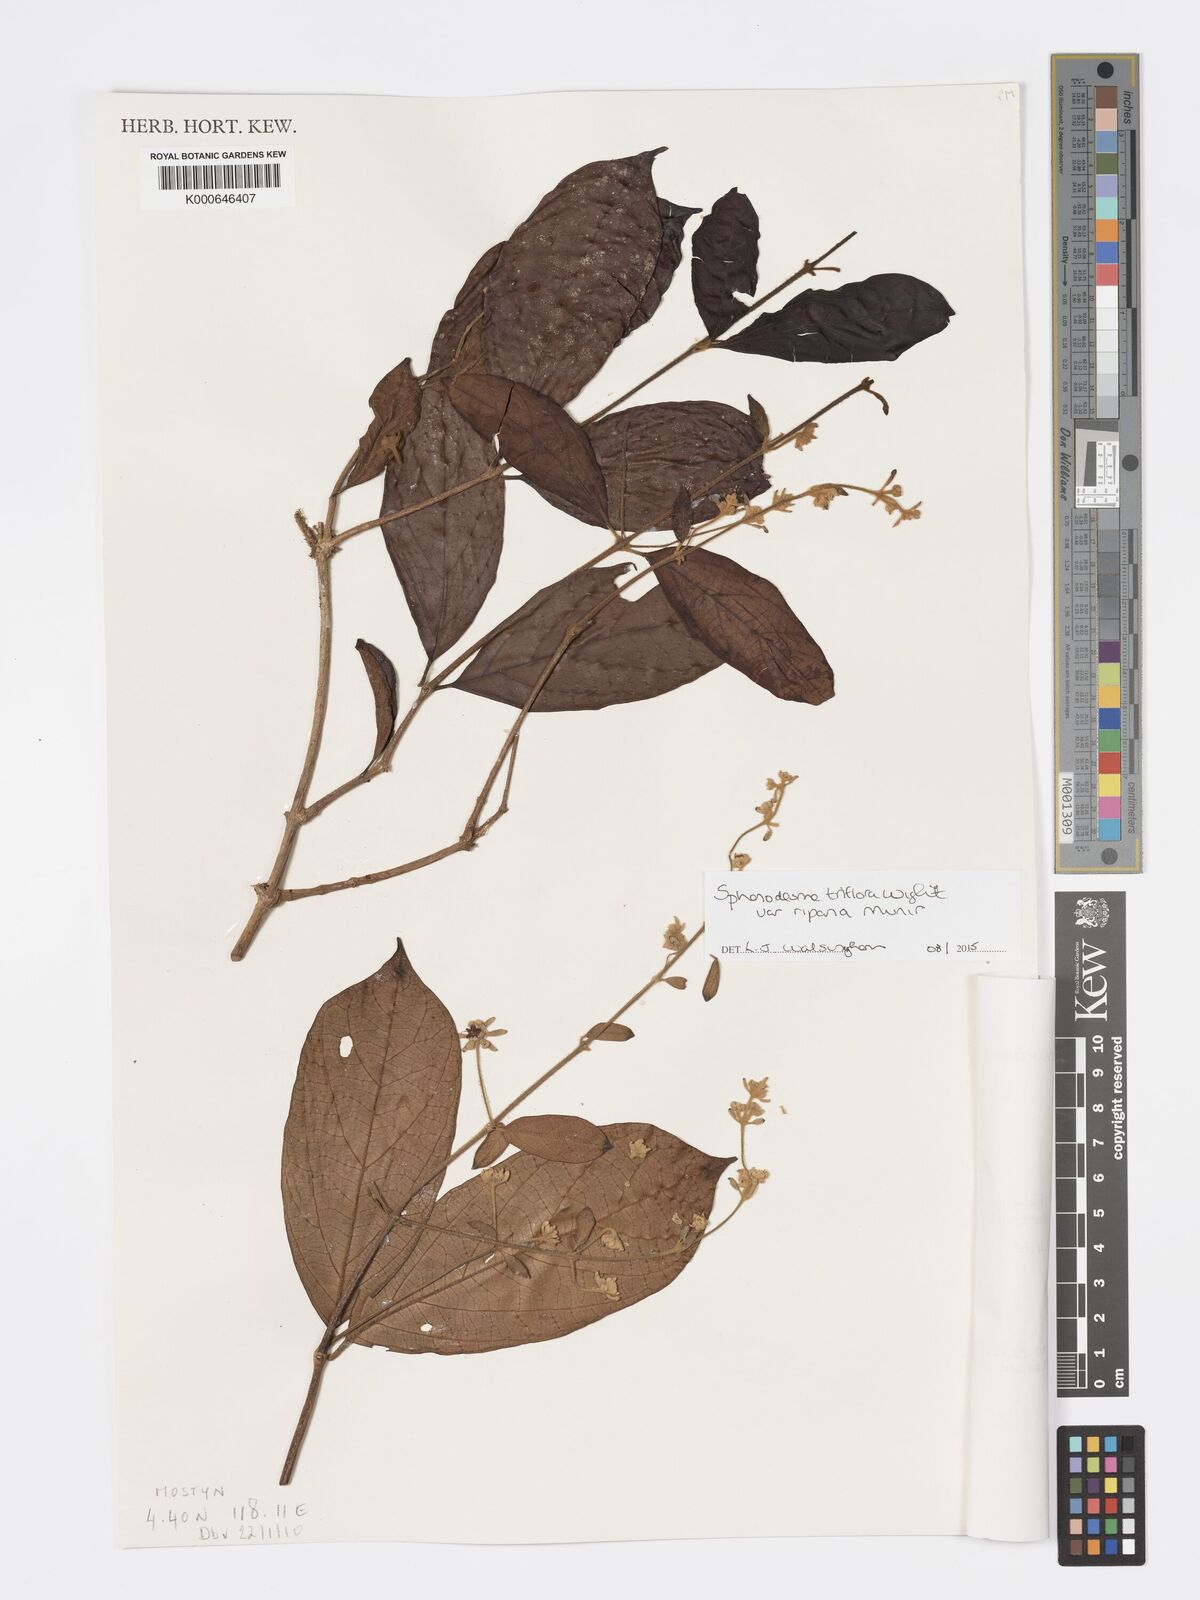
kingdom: Plantae
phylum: Tracheophyta
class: Magnoliopsida
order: Lamiales
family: Lamiaceae
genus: Sphenodesme
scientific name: Sphenodesme triflora
